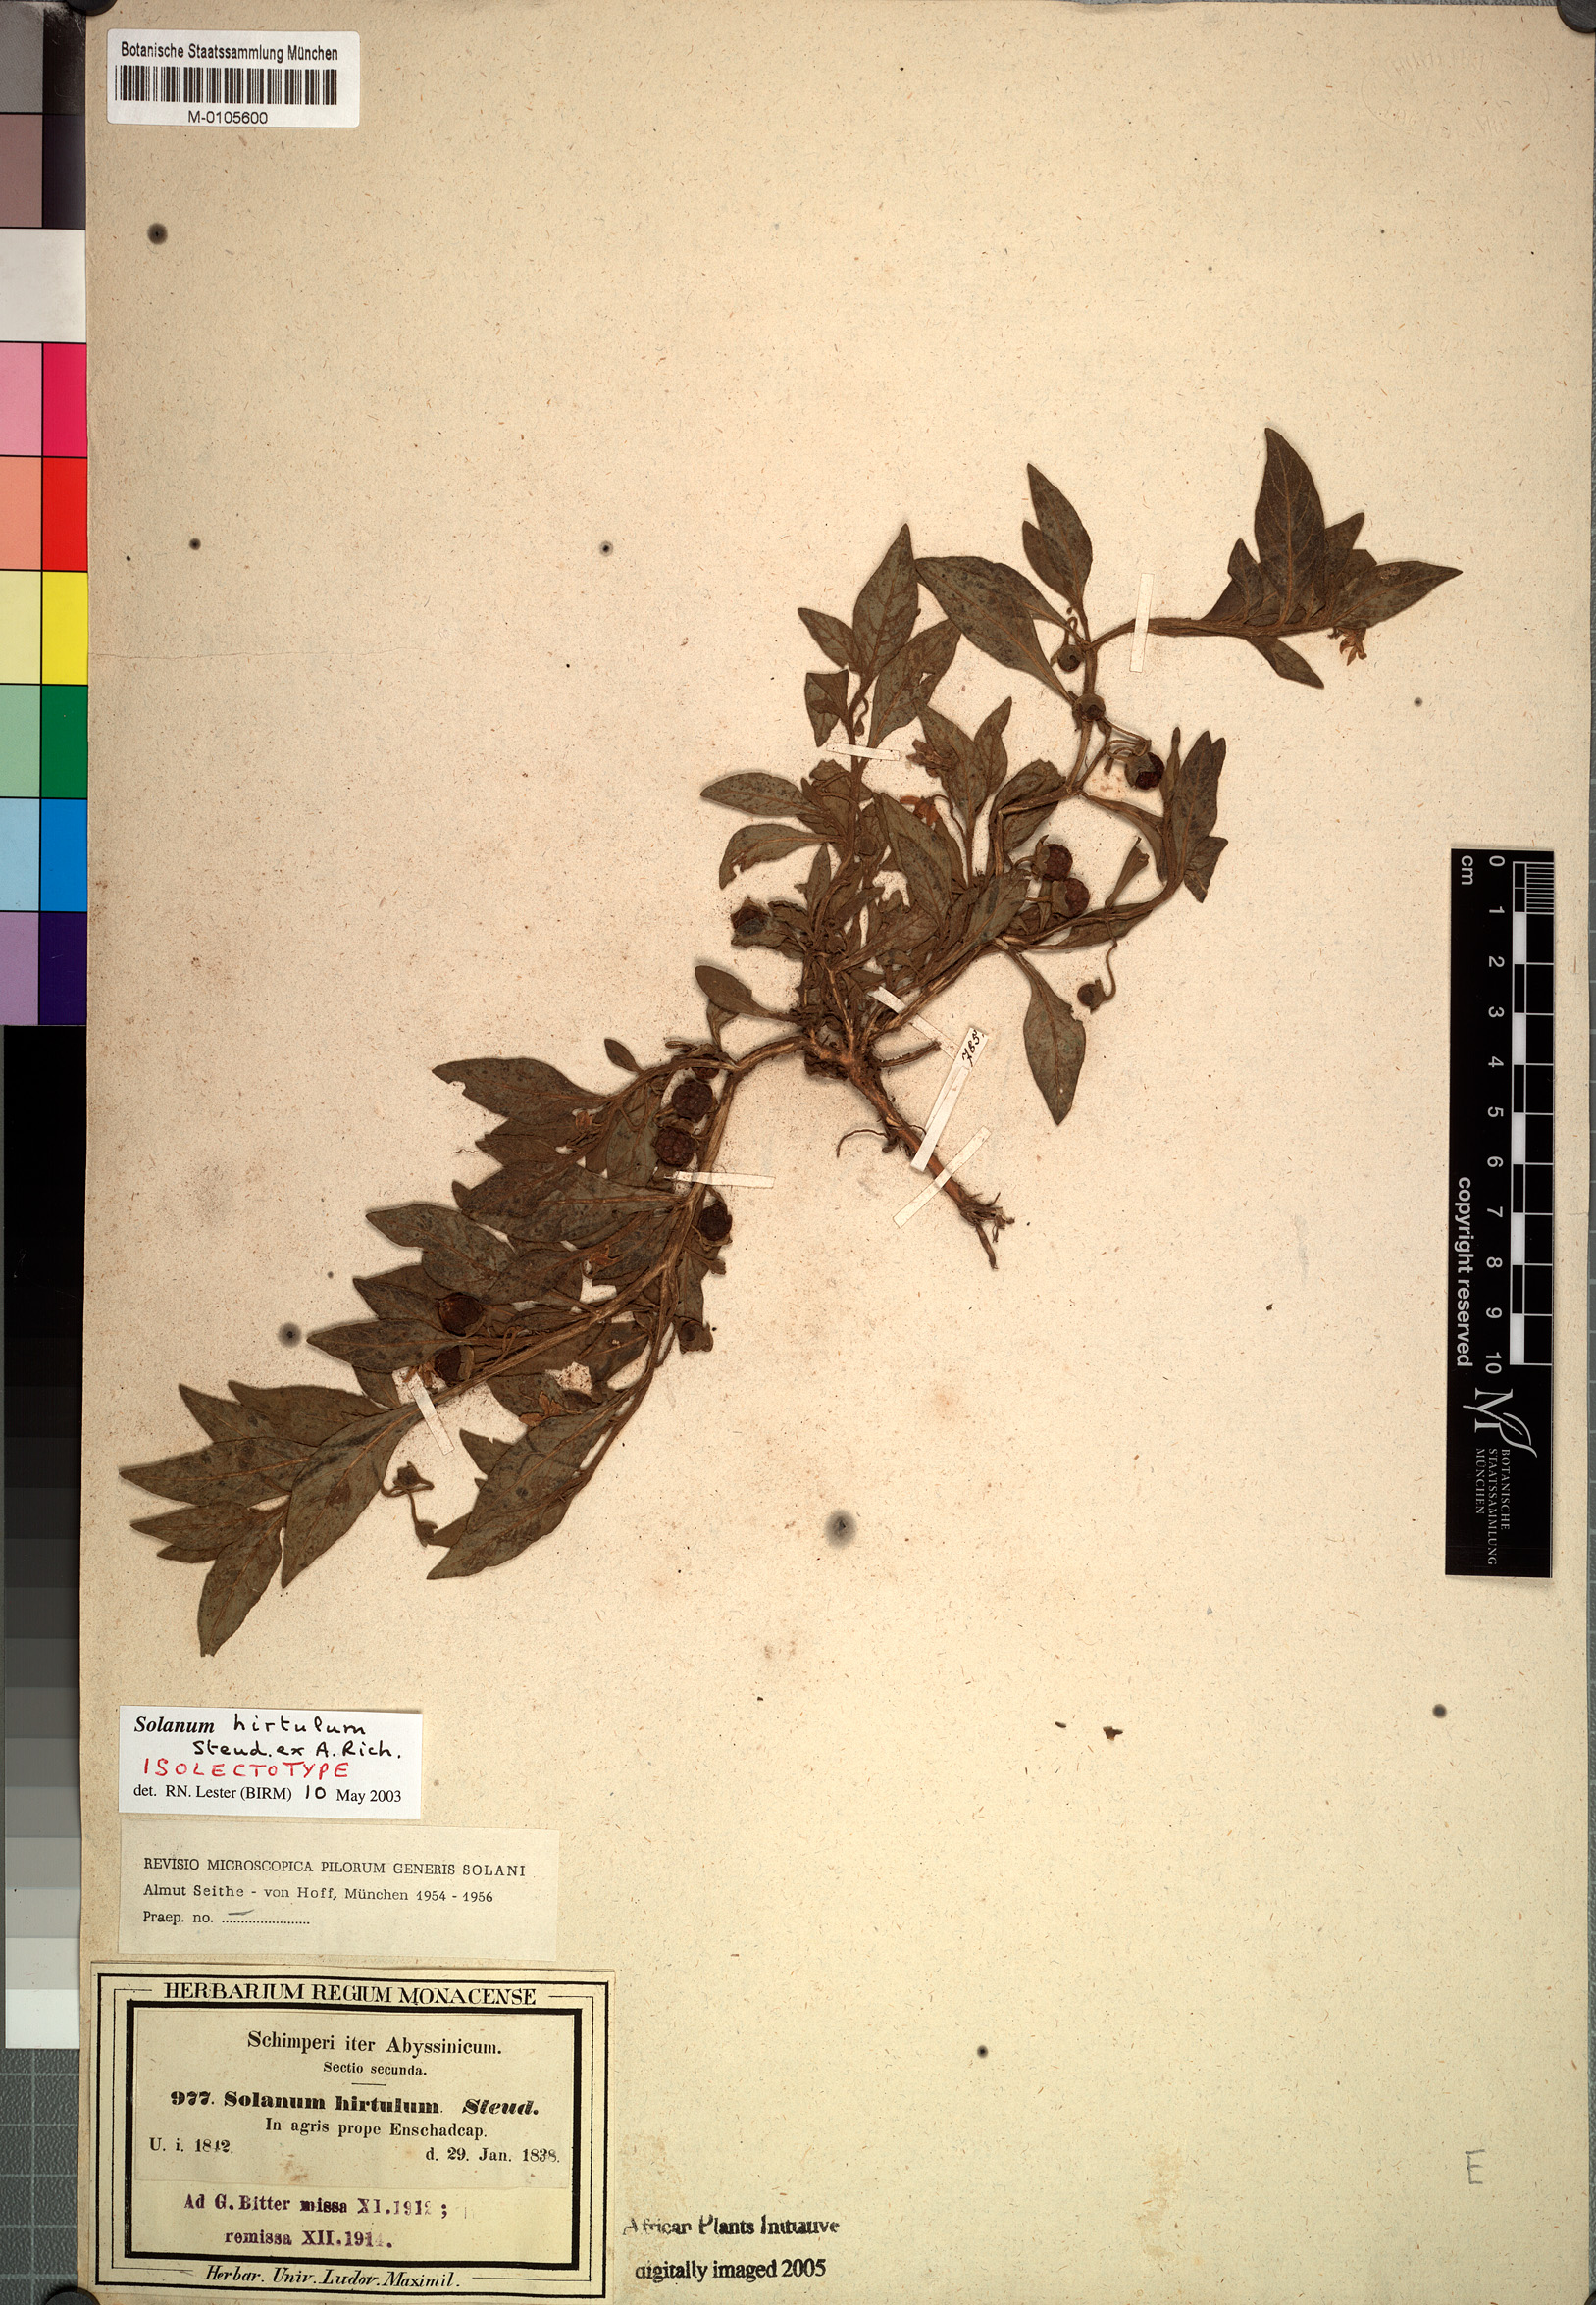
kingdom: Plantae
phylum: Tracheophyta
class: Magnoliopsida
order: Solanales
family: Solanaceae
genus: Solanum
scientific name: Solanum hirtulum
